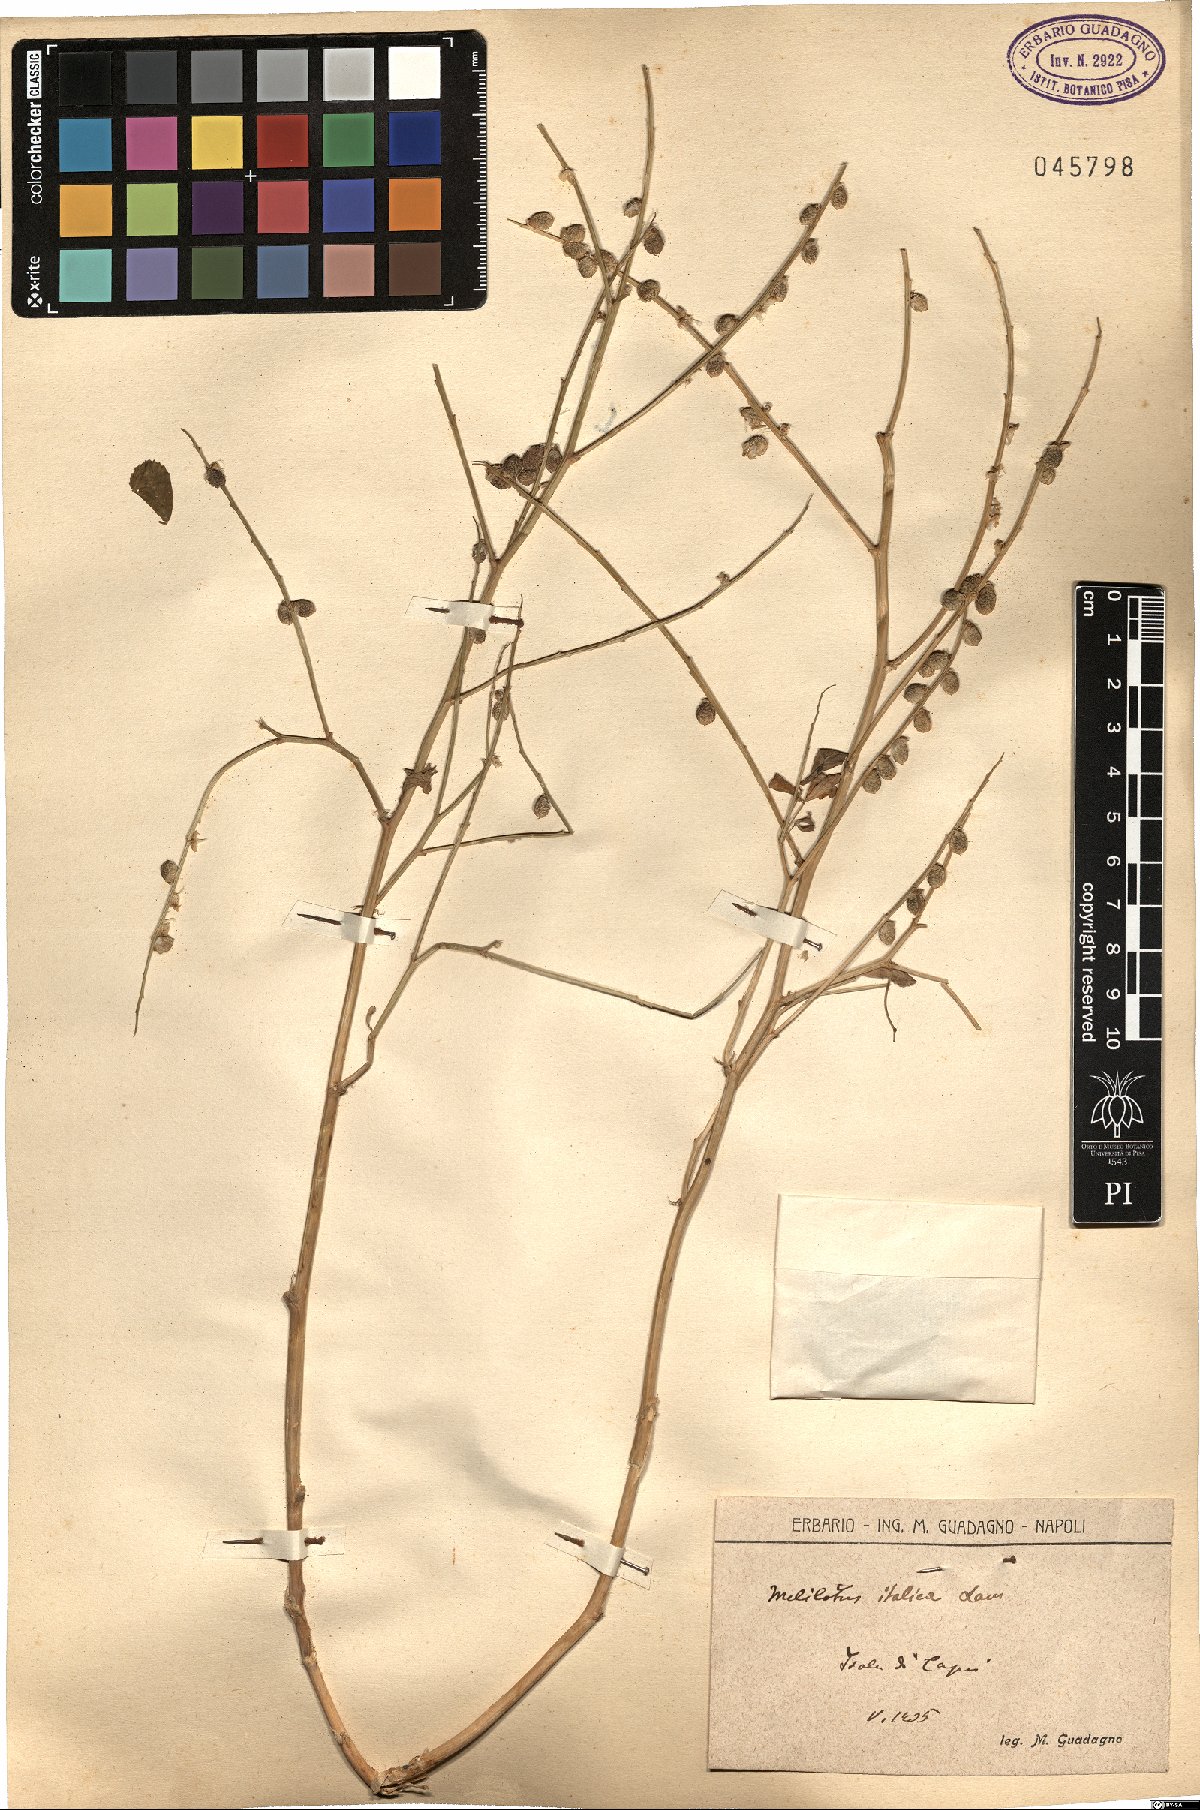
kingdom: Plantae
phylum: Tracheophyta
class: Magnoliopsida
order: Fabales
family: Fabaceae
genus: Melilotus
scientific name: Melilotus italicus
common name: Italian melilot
